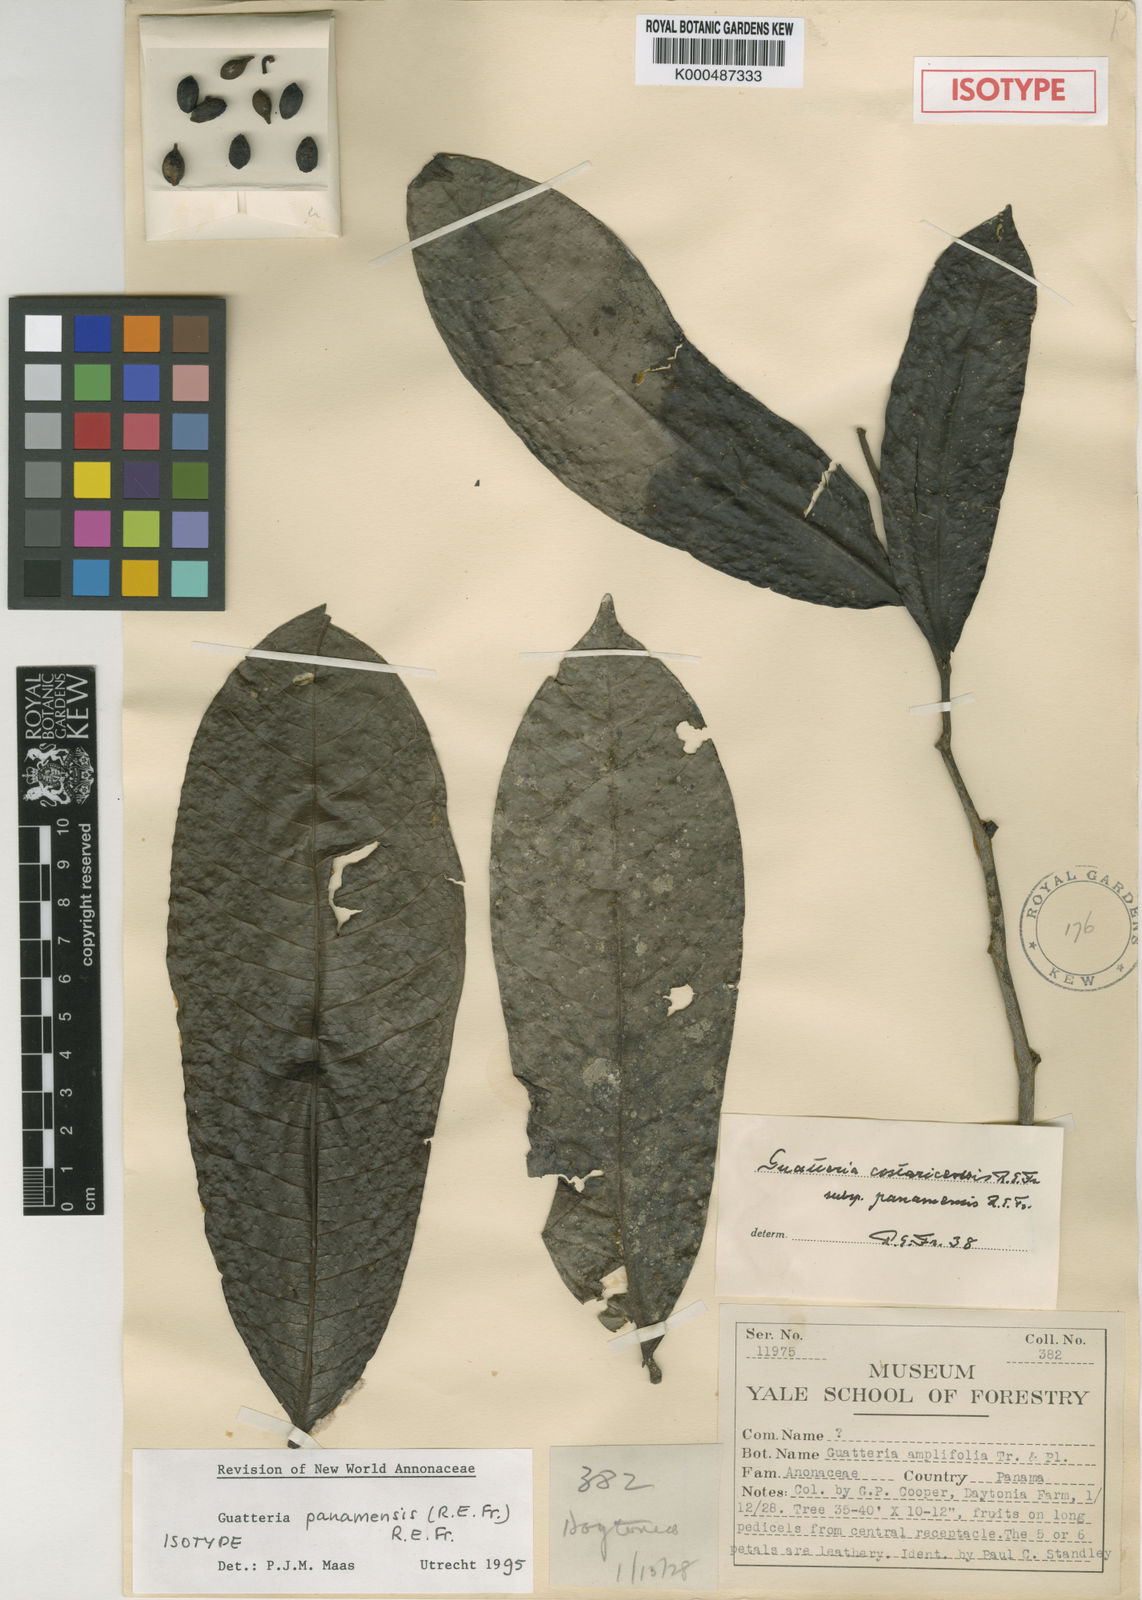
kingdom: Plantae
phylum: Tracheophyta
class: Magnoliopsida
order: Magnoliales
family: Annonaceae
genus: Guatteria
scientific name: Guatteria panamensis
